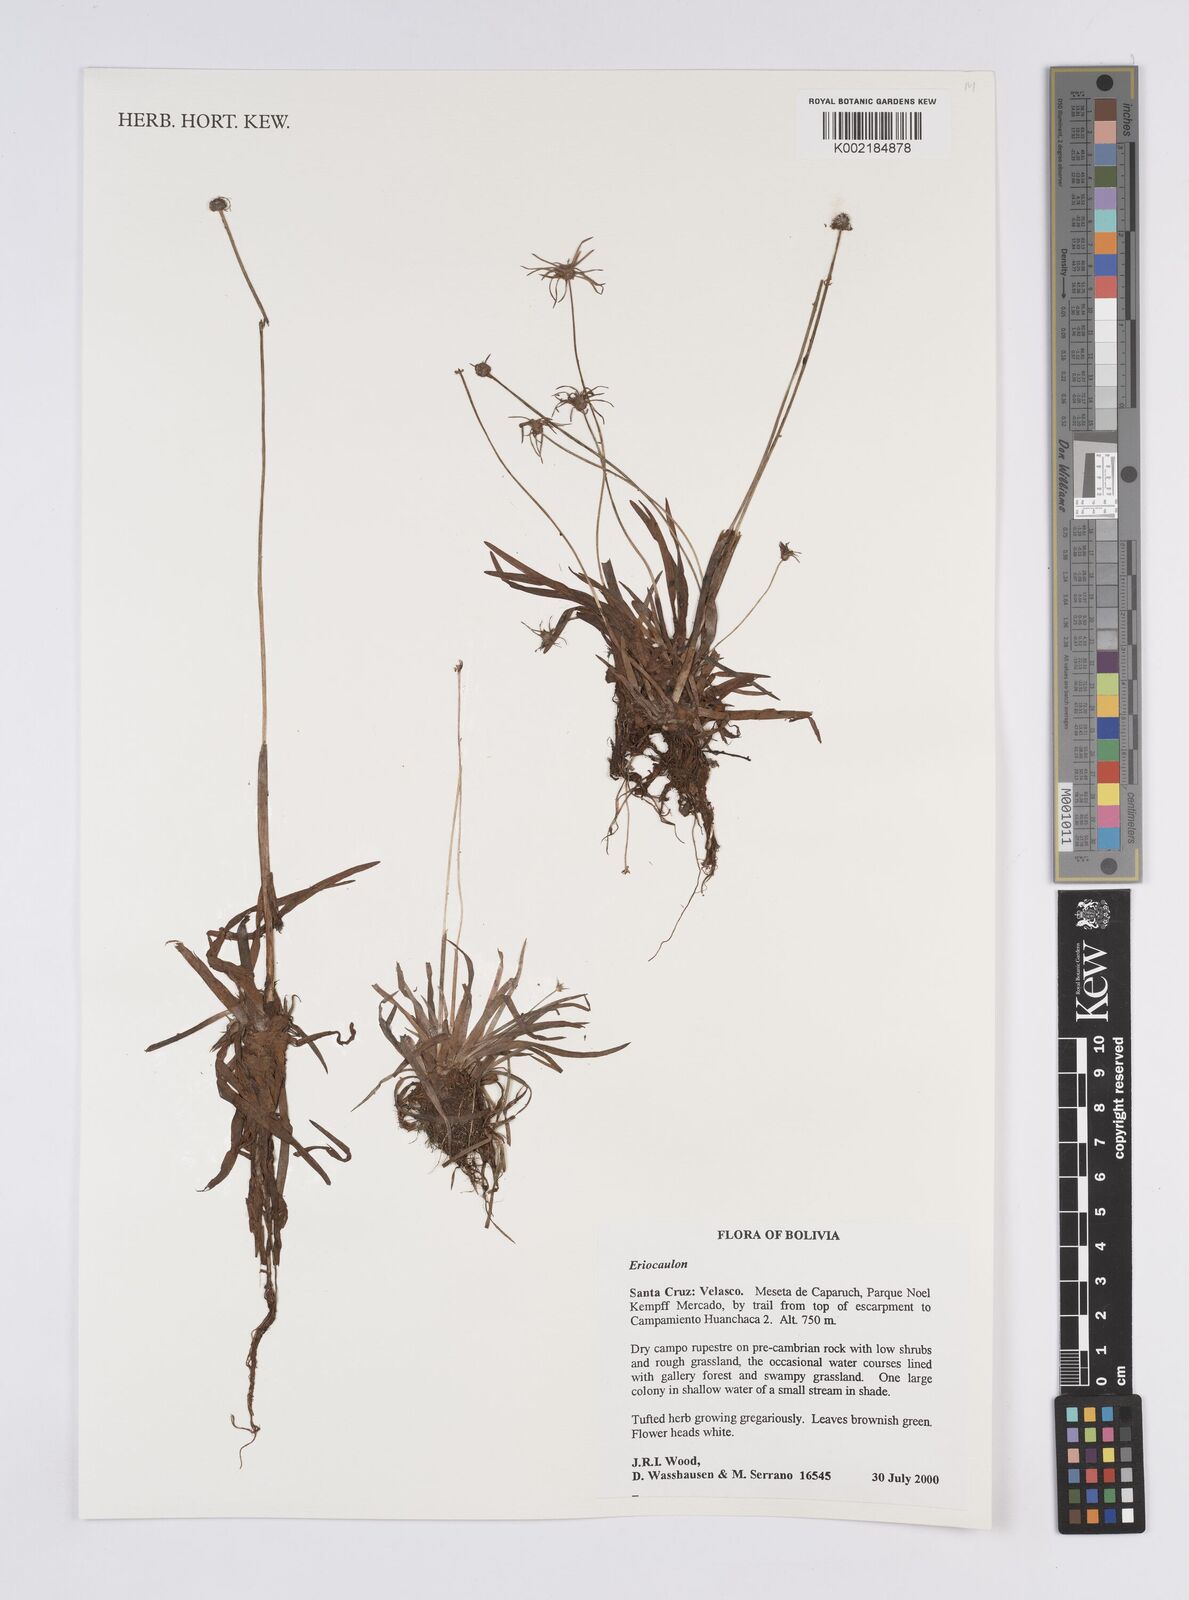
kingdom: Plantae
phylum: Tracheophyta
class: Liliopsida
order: Poales
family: Eriocaulaceae
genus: Eriocaulon
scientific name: Eriocaulon
